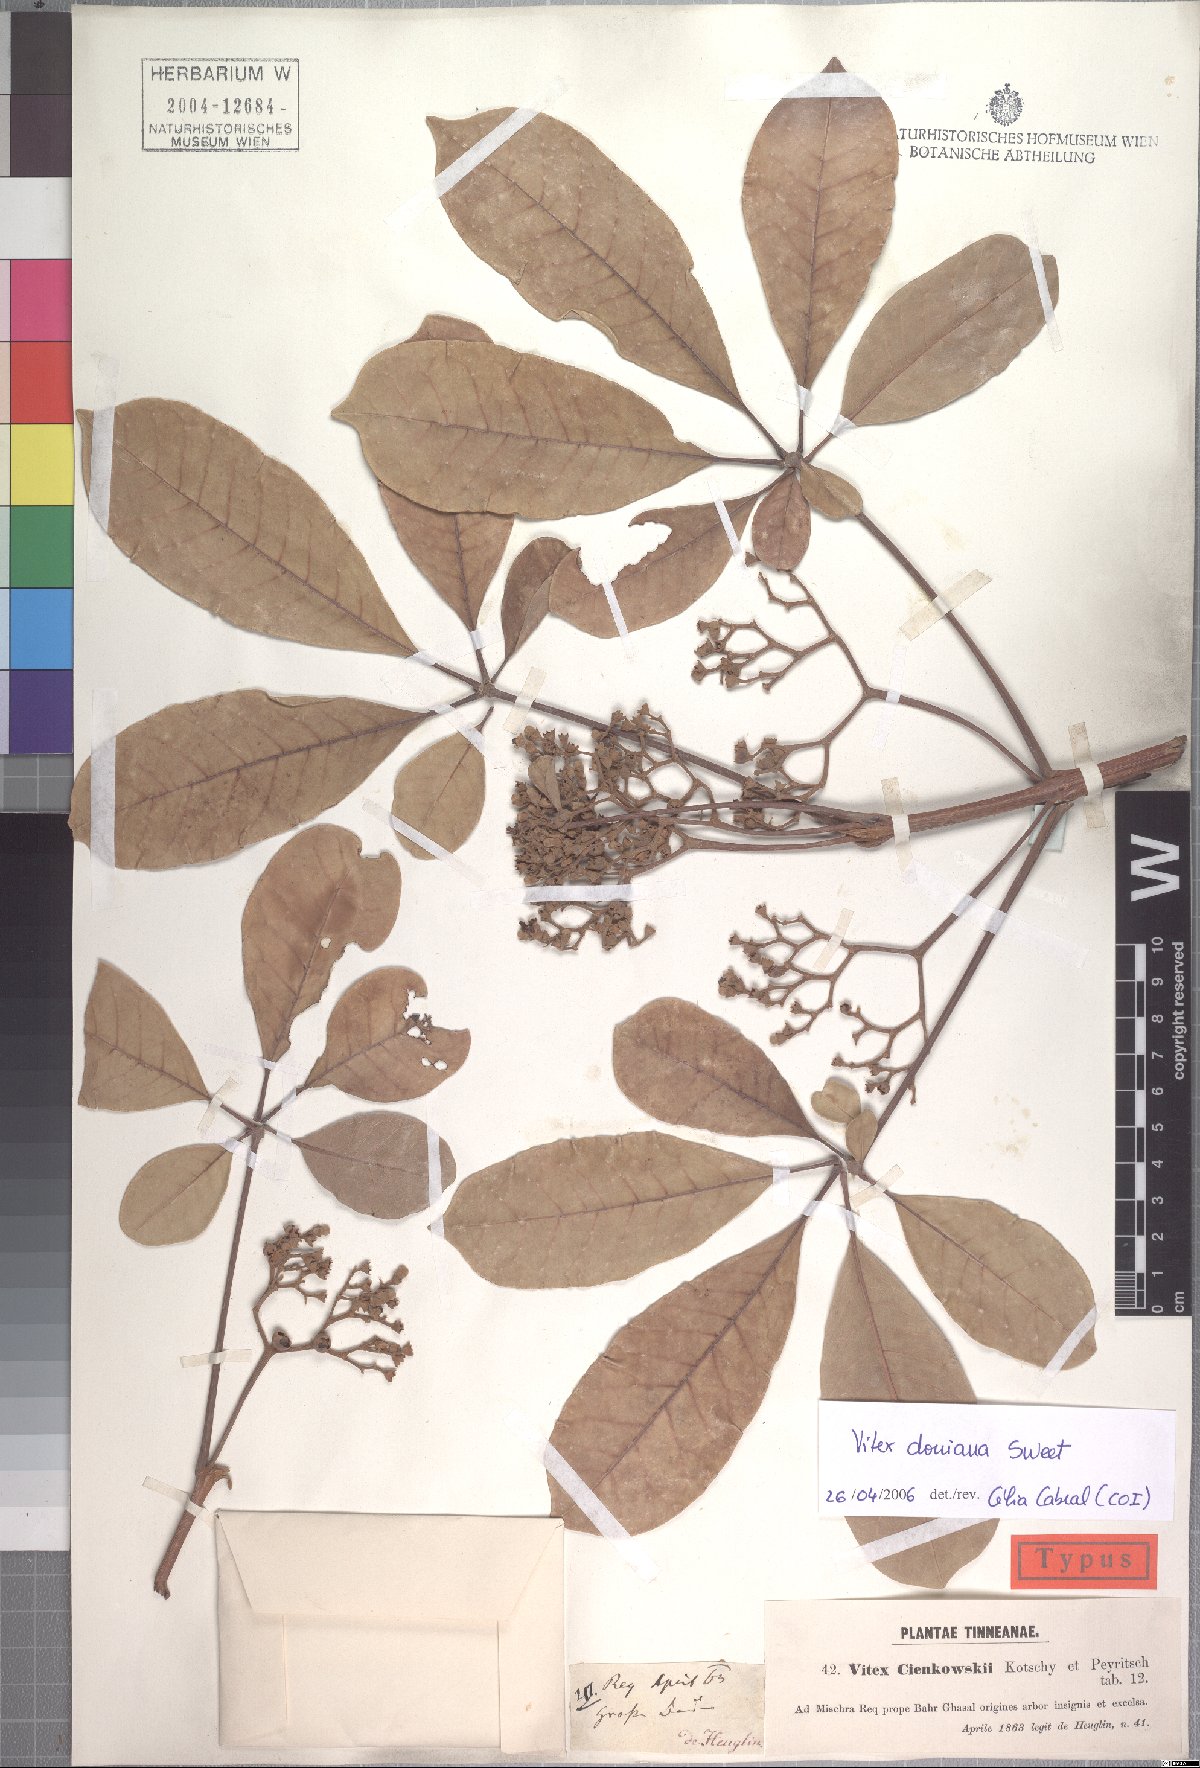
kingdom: Plantae
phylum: Tracheophyta
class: Magnoliopsida
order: Lamiales
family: Lamiaceae
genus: Vitex
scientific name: Vitex doniana
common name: Black plum
